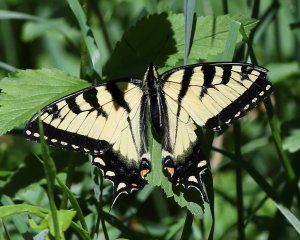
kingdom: Animalia
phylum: Arthropoda
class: Insecta
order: Lepidoptera
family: Papilionidae
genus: Pterourus
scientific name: Pterourus canadensis
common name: Canadian Tiger Swallowtail
